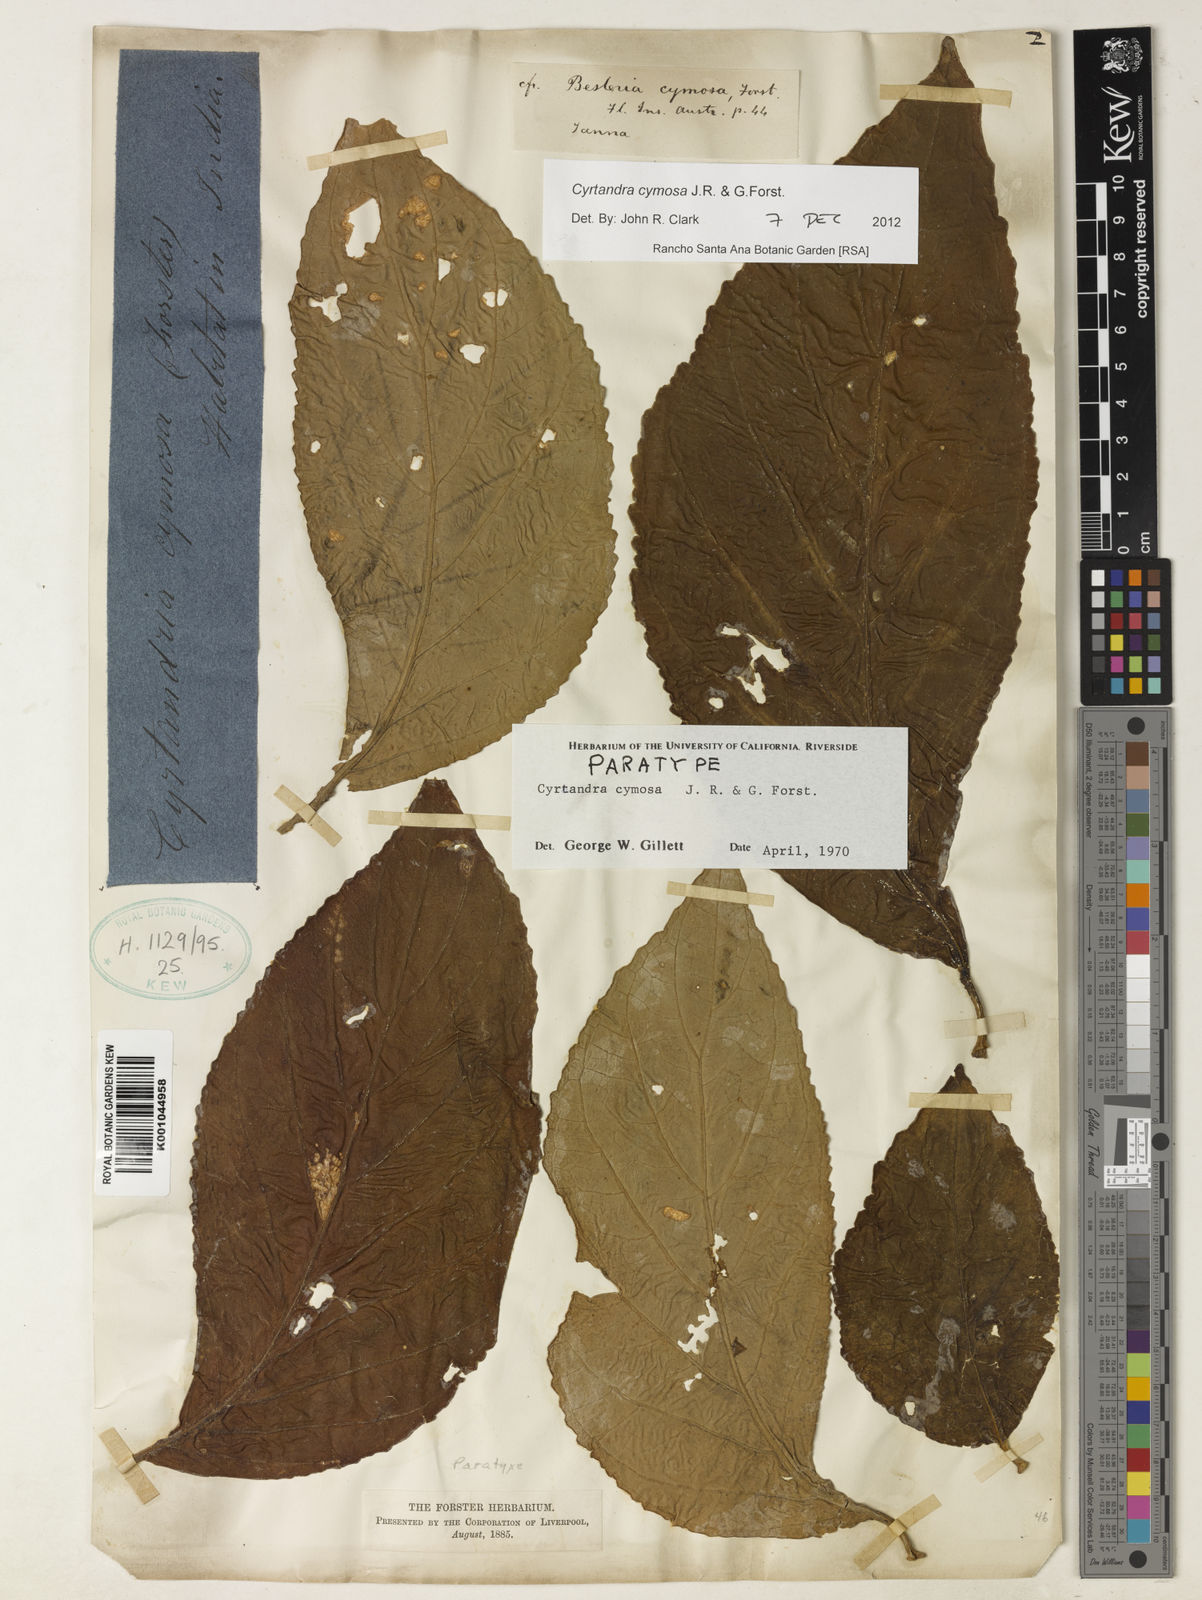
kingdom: Plantae
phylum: Tracheophyta
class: Magnoliopsida
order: Lamiales
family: Gesneriaceae
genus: Cyrtandra
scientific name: Cyrtandra cymosa
